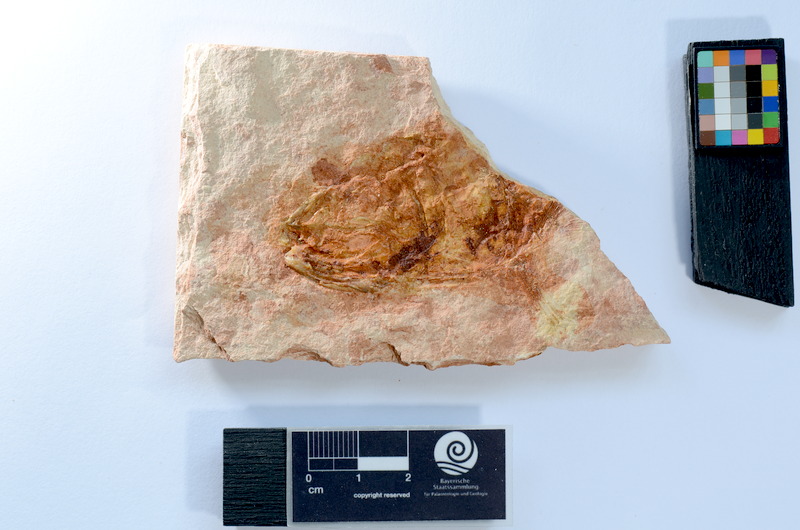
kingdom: Animalia
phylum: Chordata
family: Ascalaboidae
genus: Tharsis
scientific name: Tharsis dubius
